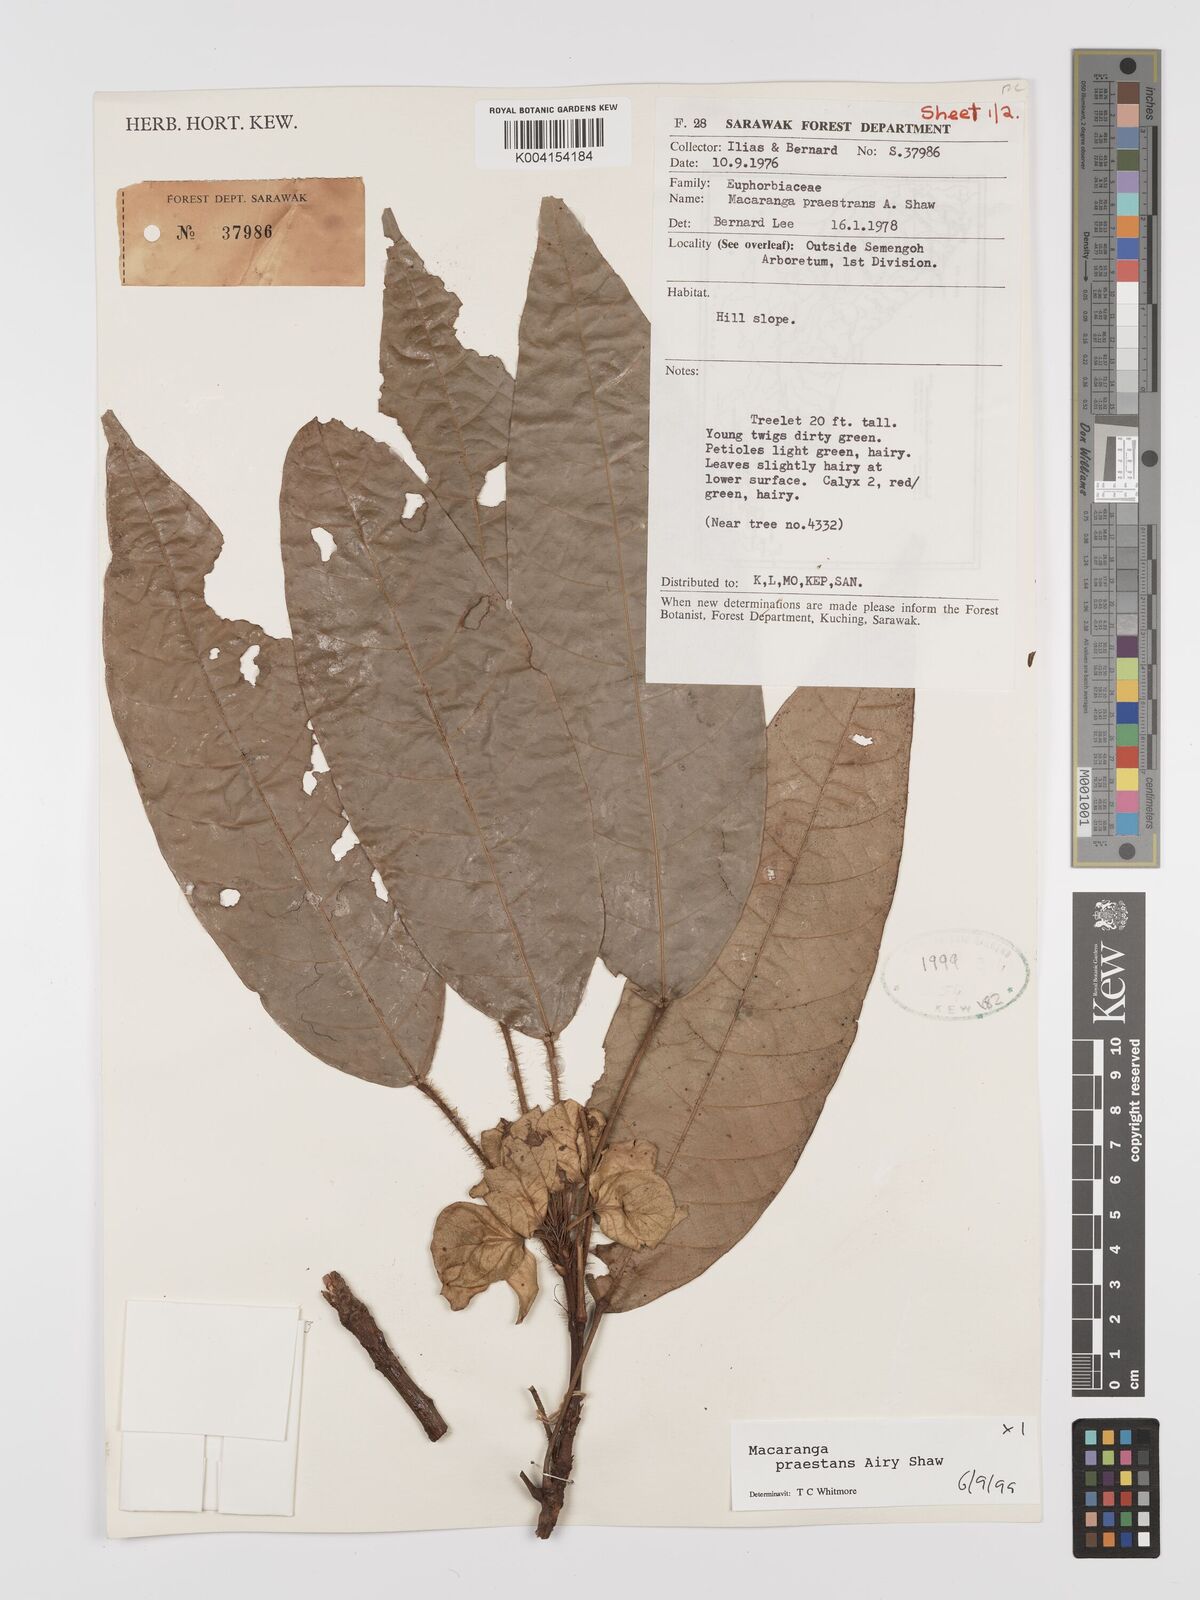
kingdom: Plantae
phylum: Tracheophyta
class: Magnoliopsida
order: Malpighiales
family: Euphorbiaceae
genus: Macaranga
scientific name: Macaranga praestans
